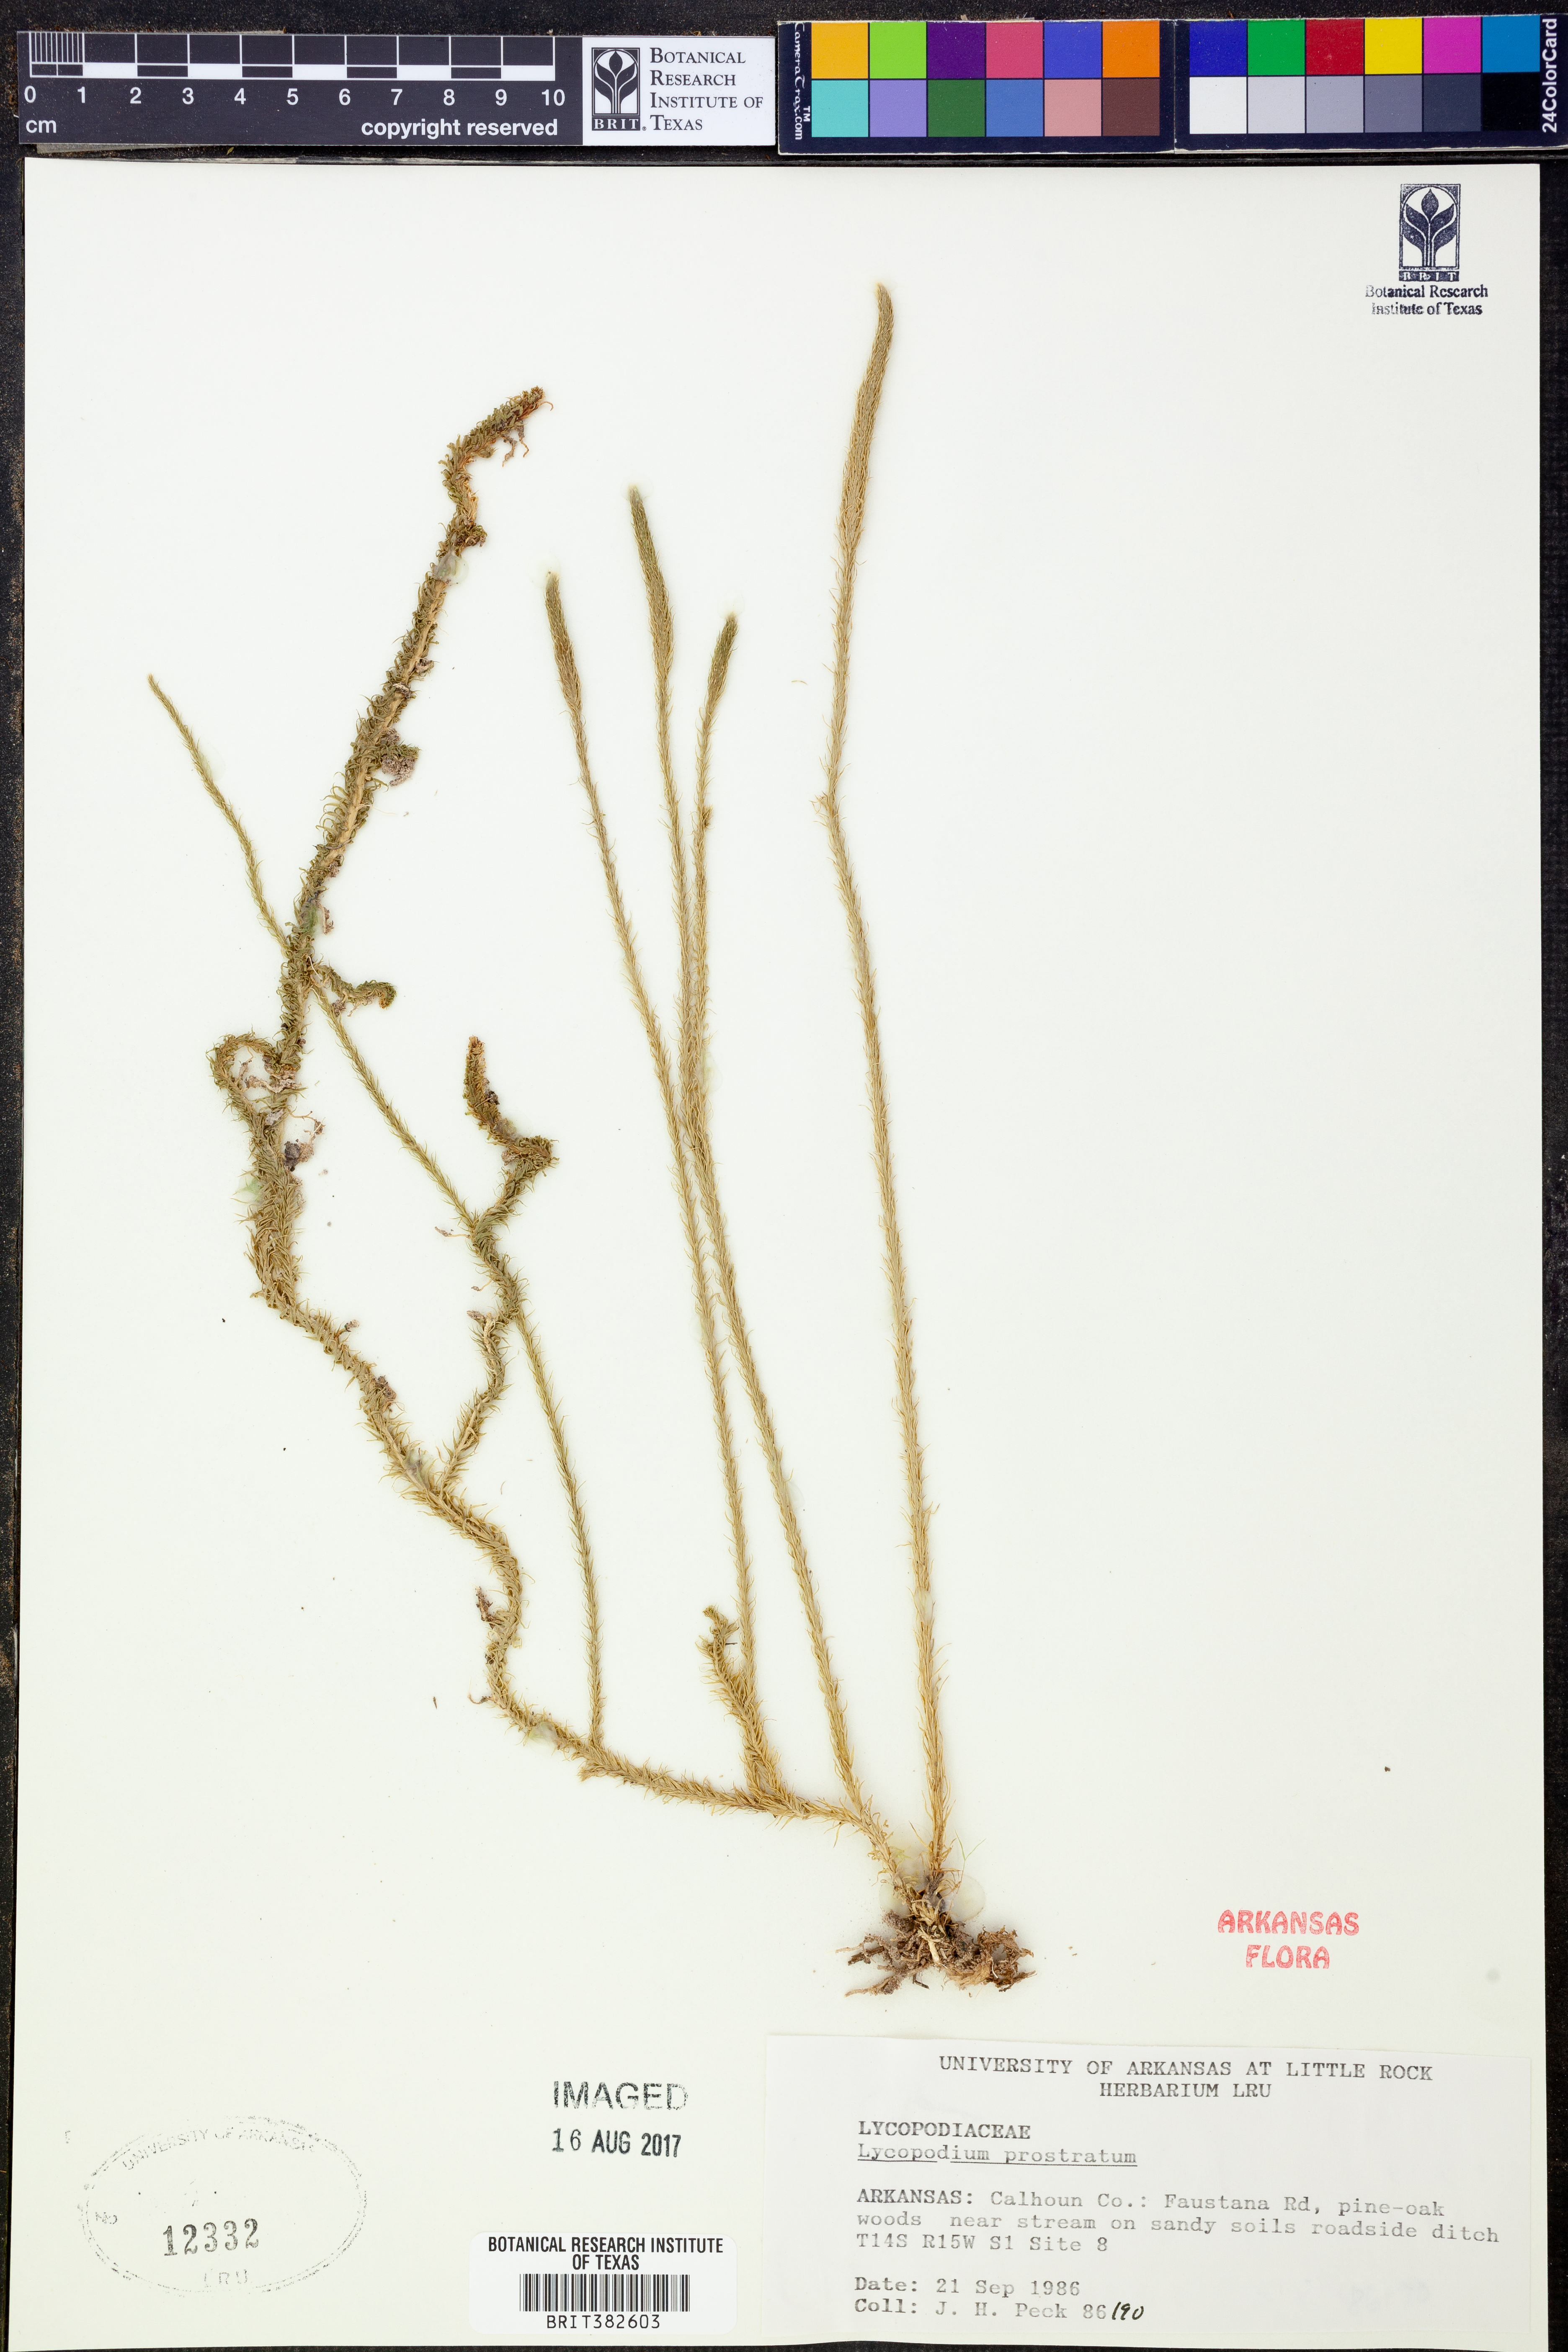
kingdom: Plantae
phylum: Tracheophyta
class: Lycopodiopsida
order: Lycopodiales
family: Lycopodiaceae
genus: Lycopodiella
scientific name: Lycopodiella prostrata
